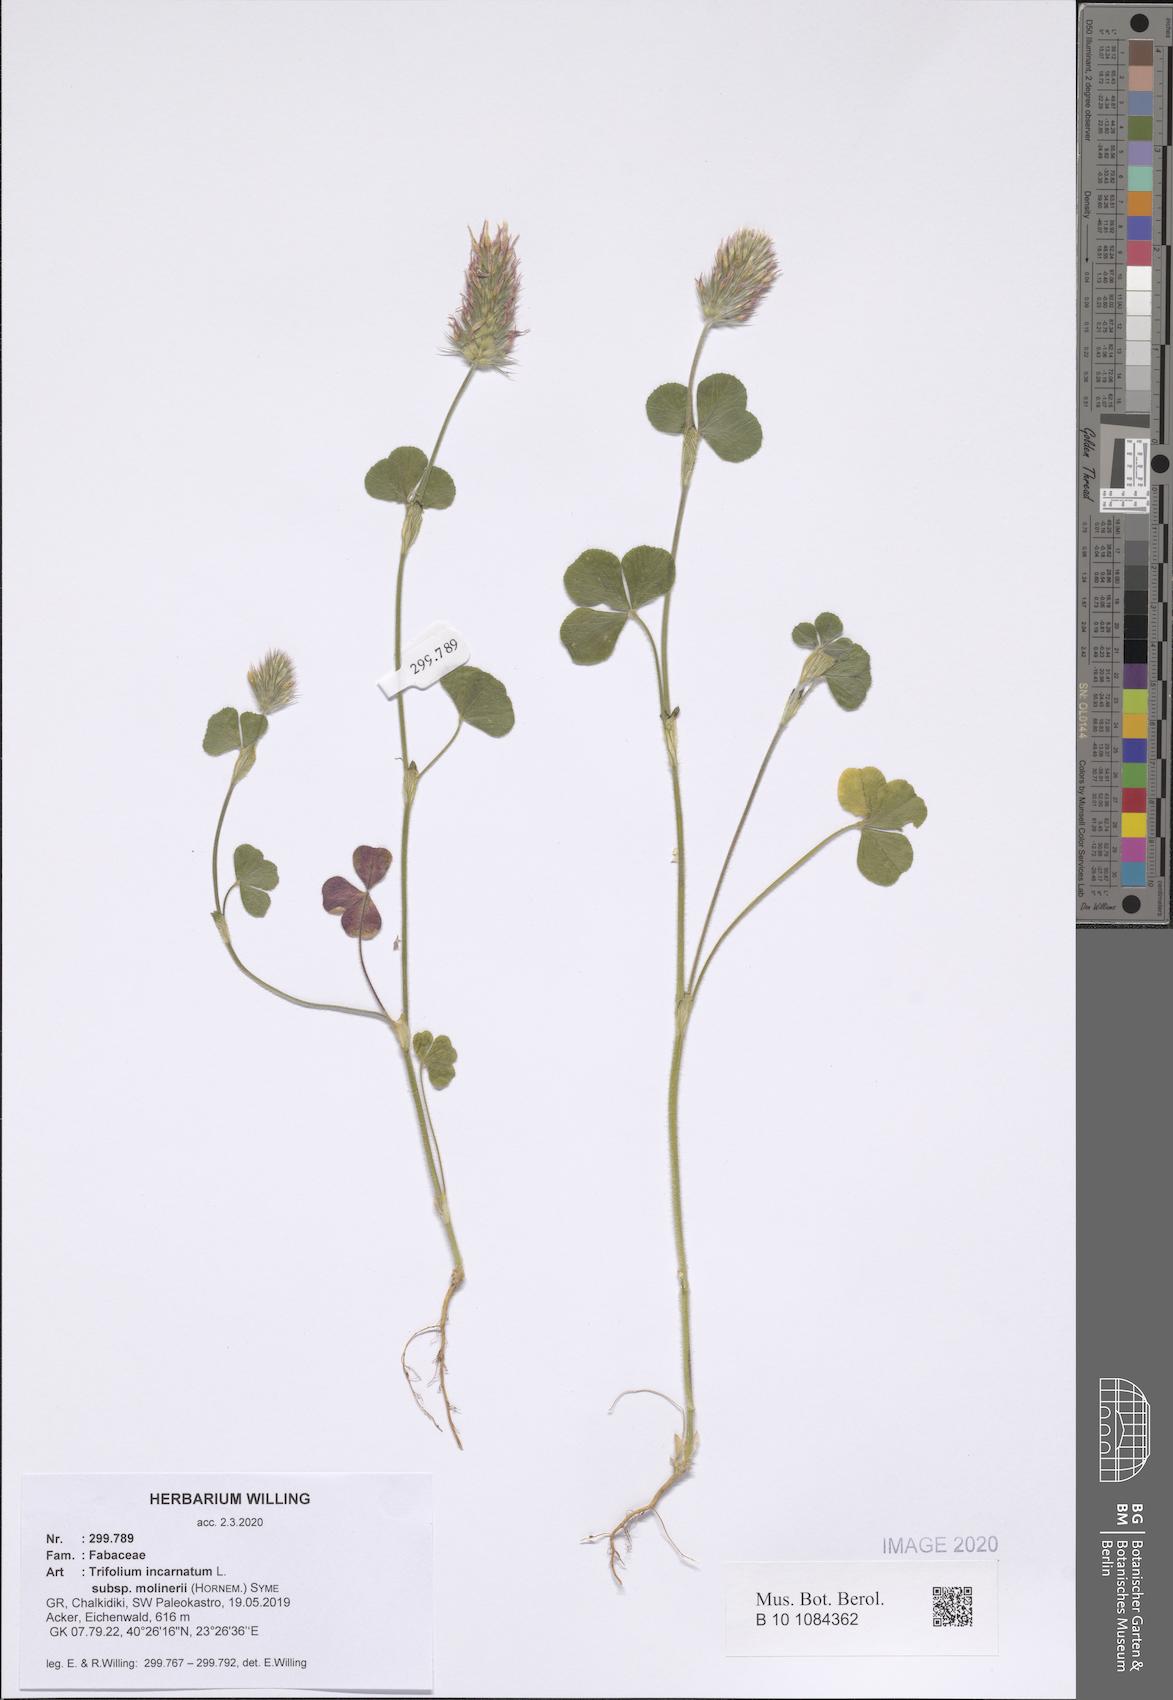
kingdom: Plantae
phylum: Tracheophyta
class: Magnoliopsida
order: Fabales
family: Fabaceae
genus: Trifolium
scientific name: Trifolium incarnatum
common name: Crimson clover
